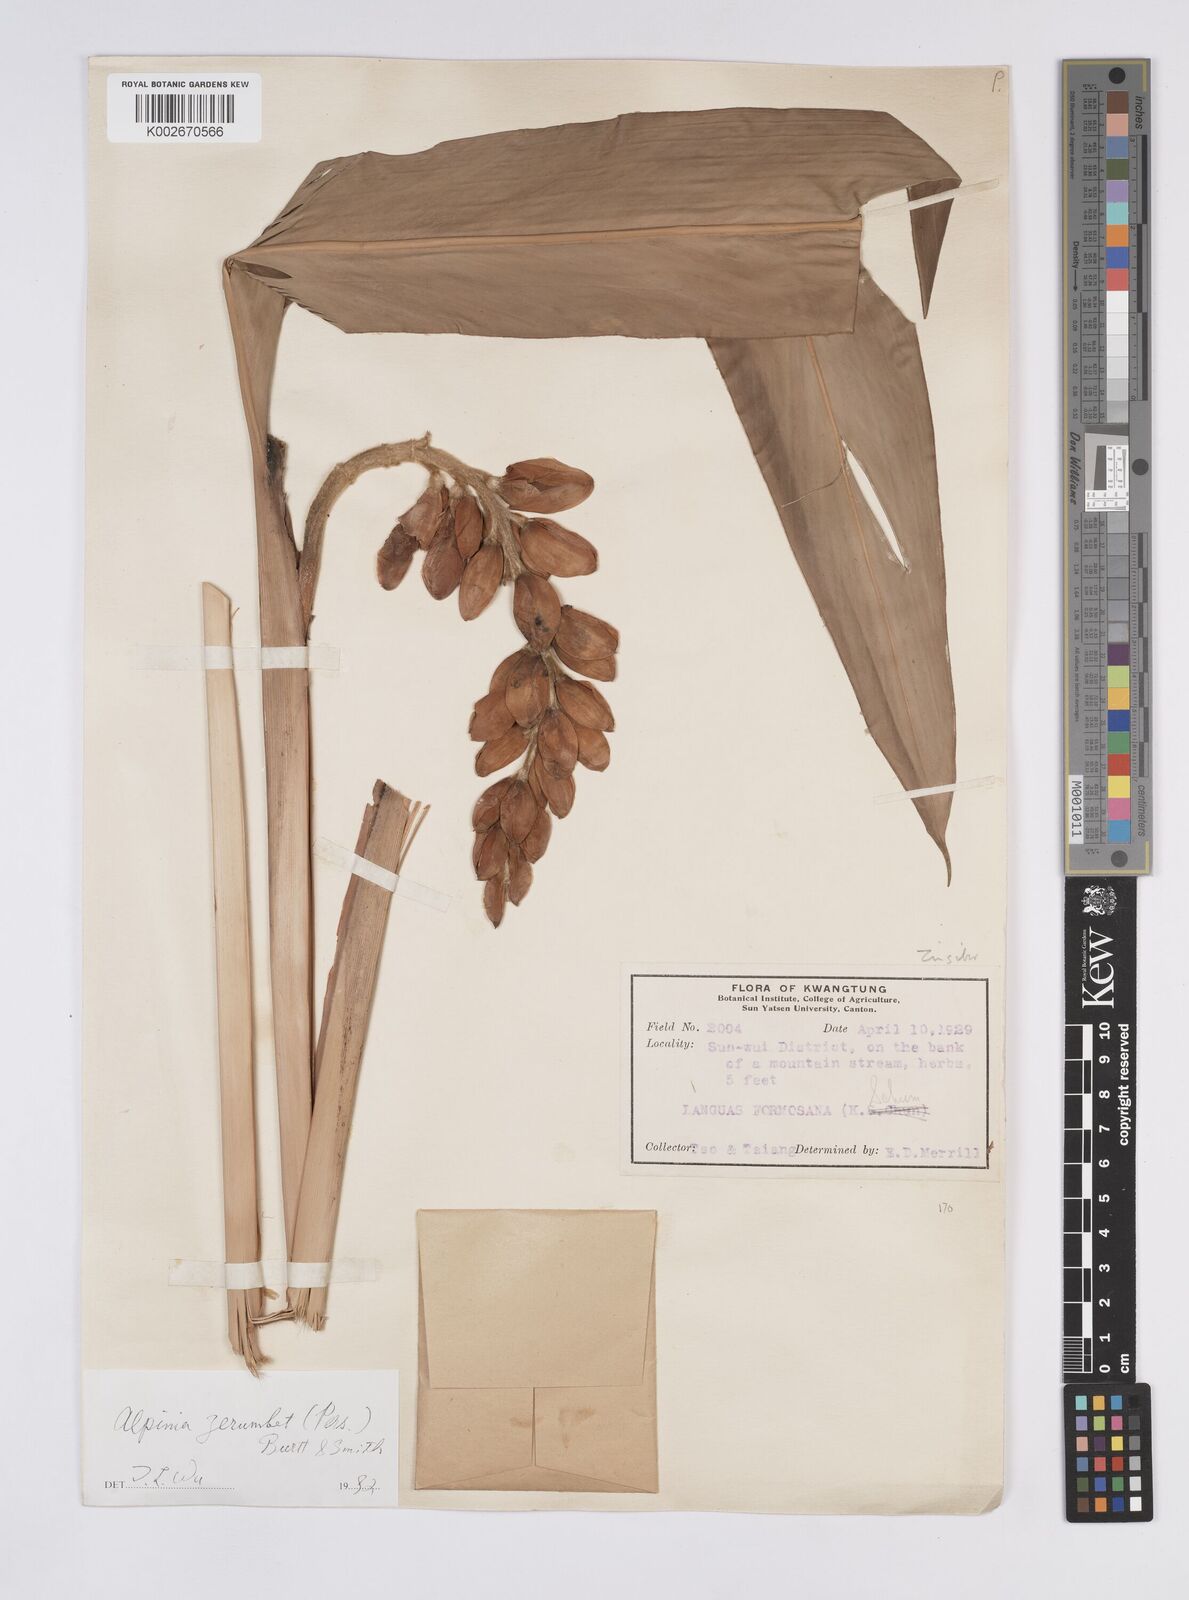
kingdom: Plantae
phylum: Tracheophyta
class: Liliopsida
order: Zingiberales
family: Zingiberaceae
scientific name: Zingiberaceae
